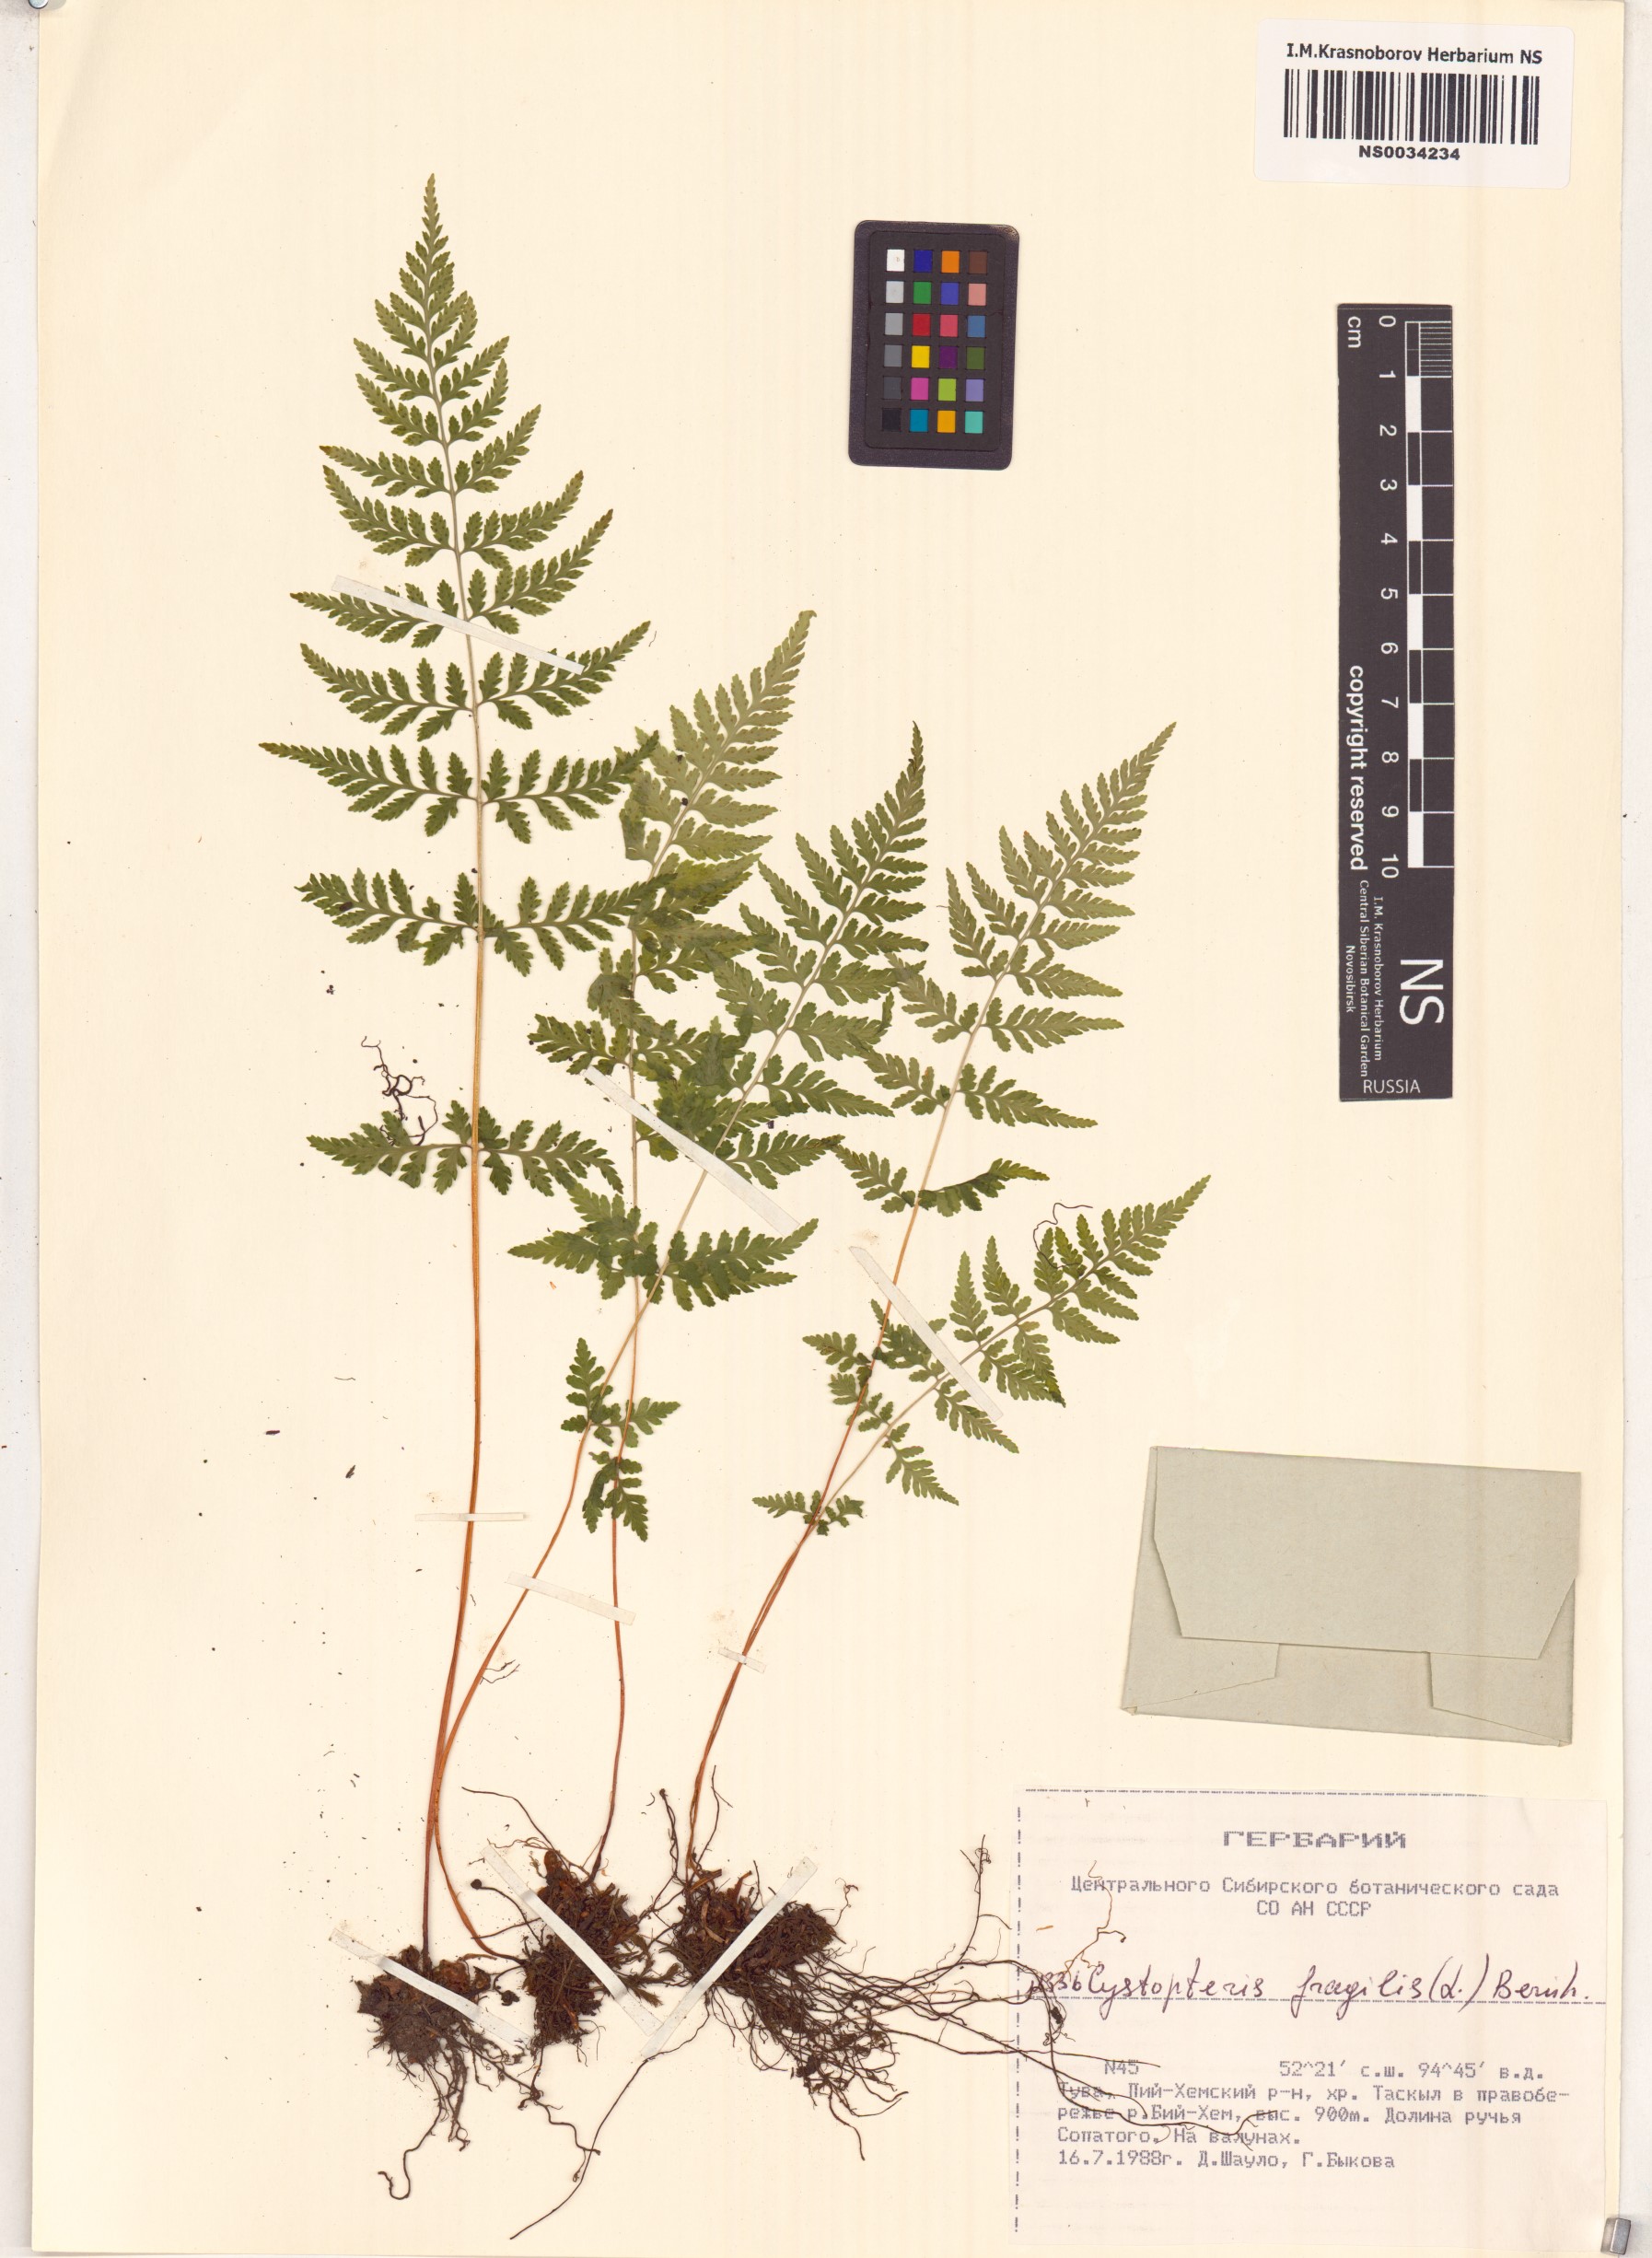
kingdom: Plantae
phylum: Tracheophyta
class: Polypodiopsida
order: Polypodiales
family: Cystopteridaceae
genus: Cystopteris
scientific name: Cystopteris fragilis
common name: Brittle bladder fern
